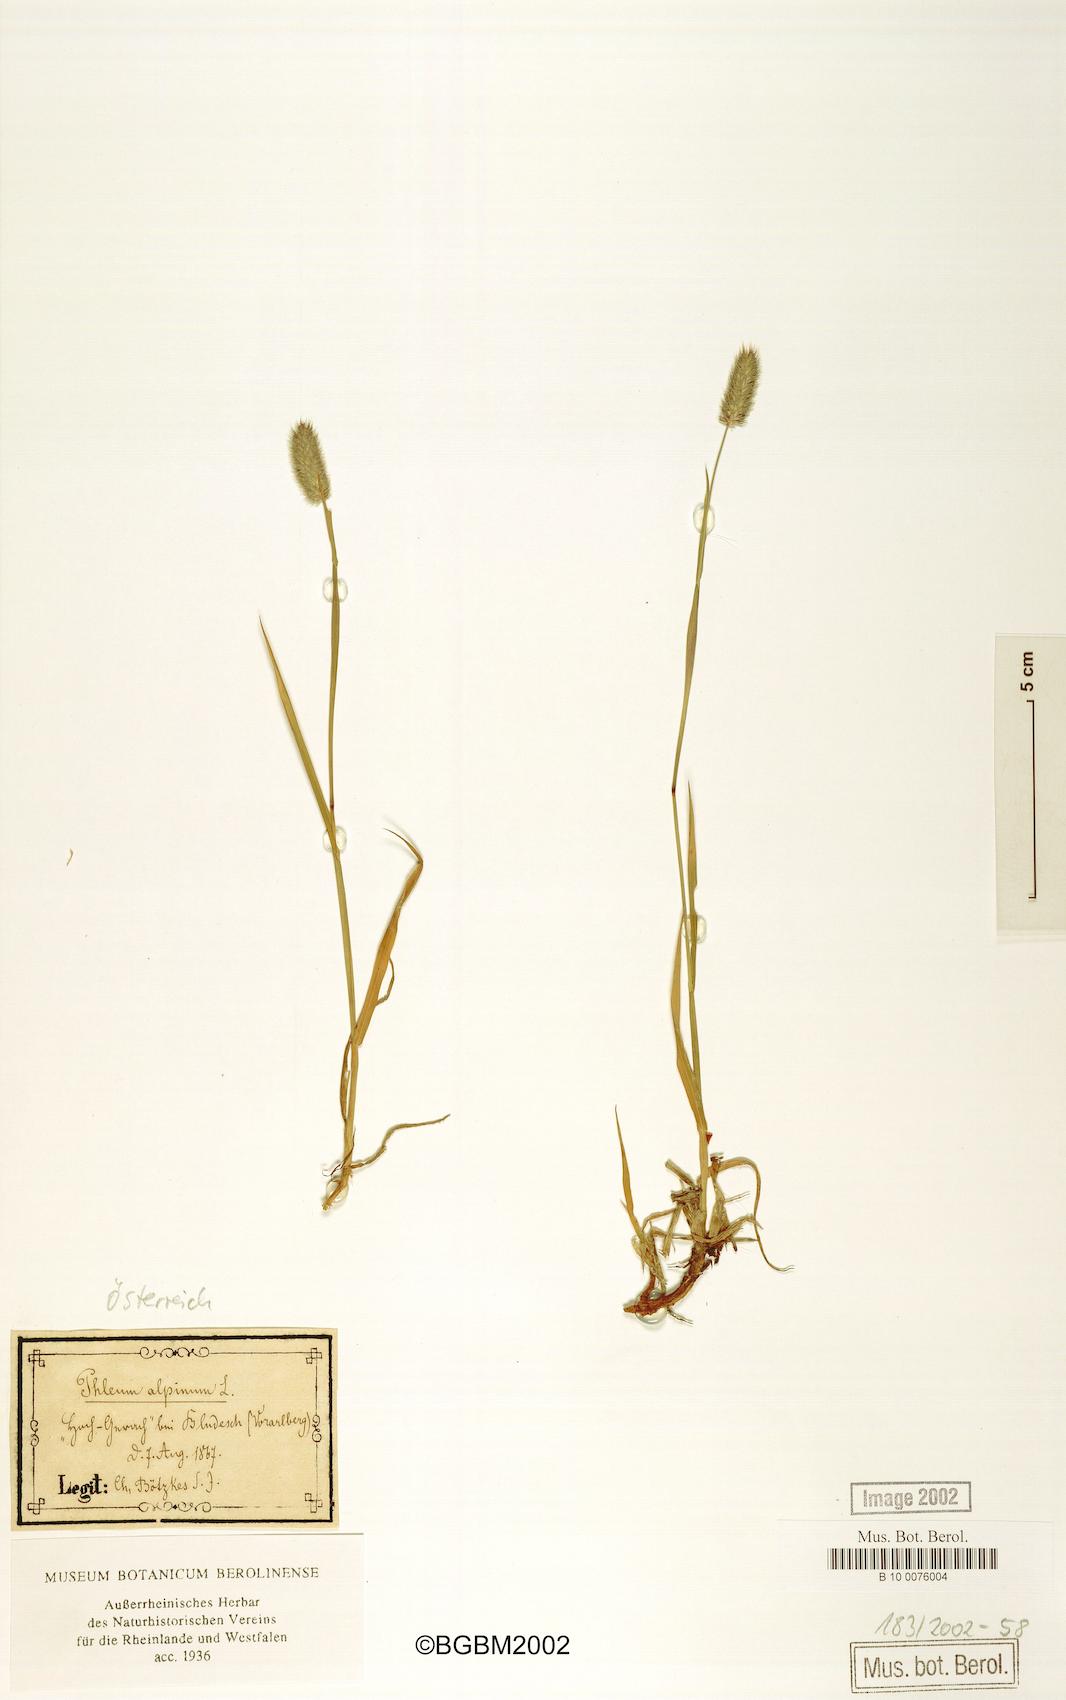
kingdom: Plantae
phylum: Tracheophyta
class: Liliopsida
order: Poales
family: Poaceae
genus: Phleum
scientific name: Phleum alpinum
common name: Alpine cat's-tail
